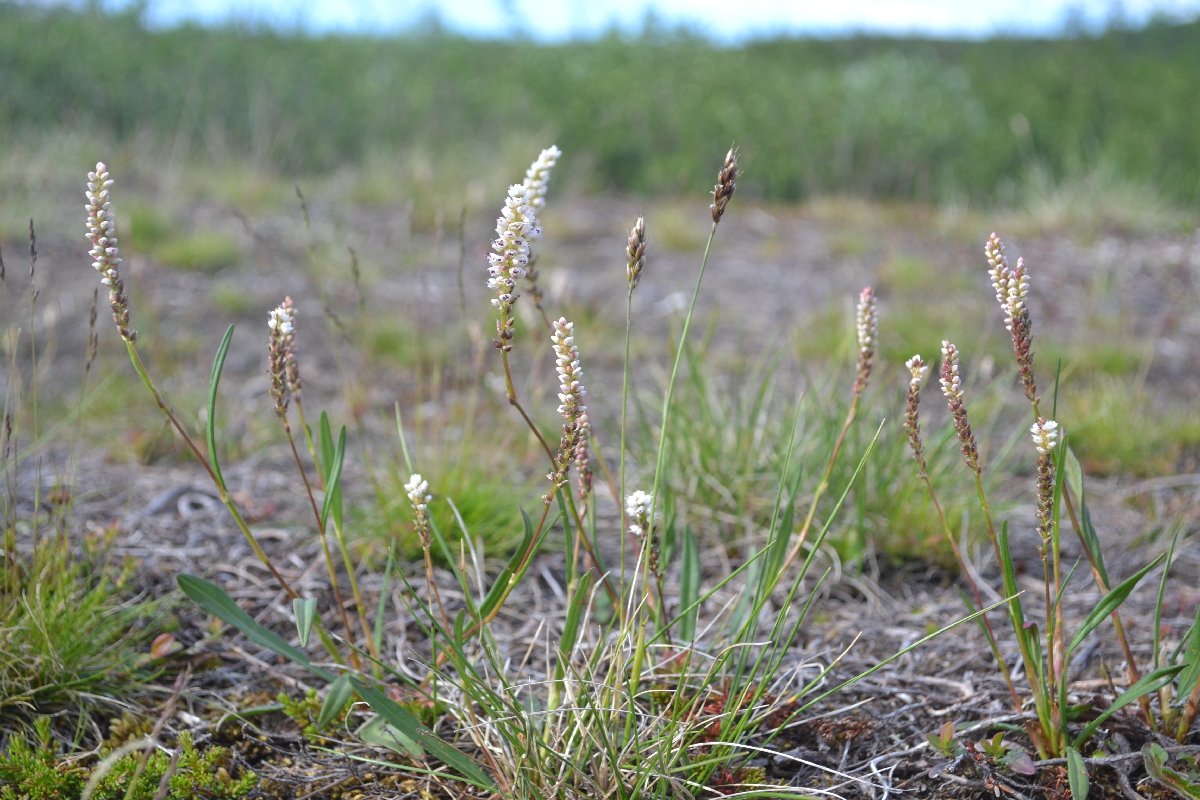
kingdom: Plantae
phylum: Tracheophyta
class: Magnoliopsida
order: Caryophyllales
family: Polygonaceae
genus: Bistorta
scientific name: Bistorta vivipara
